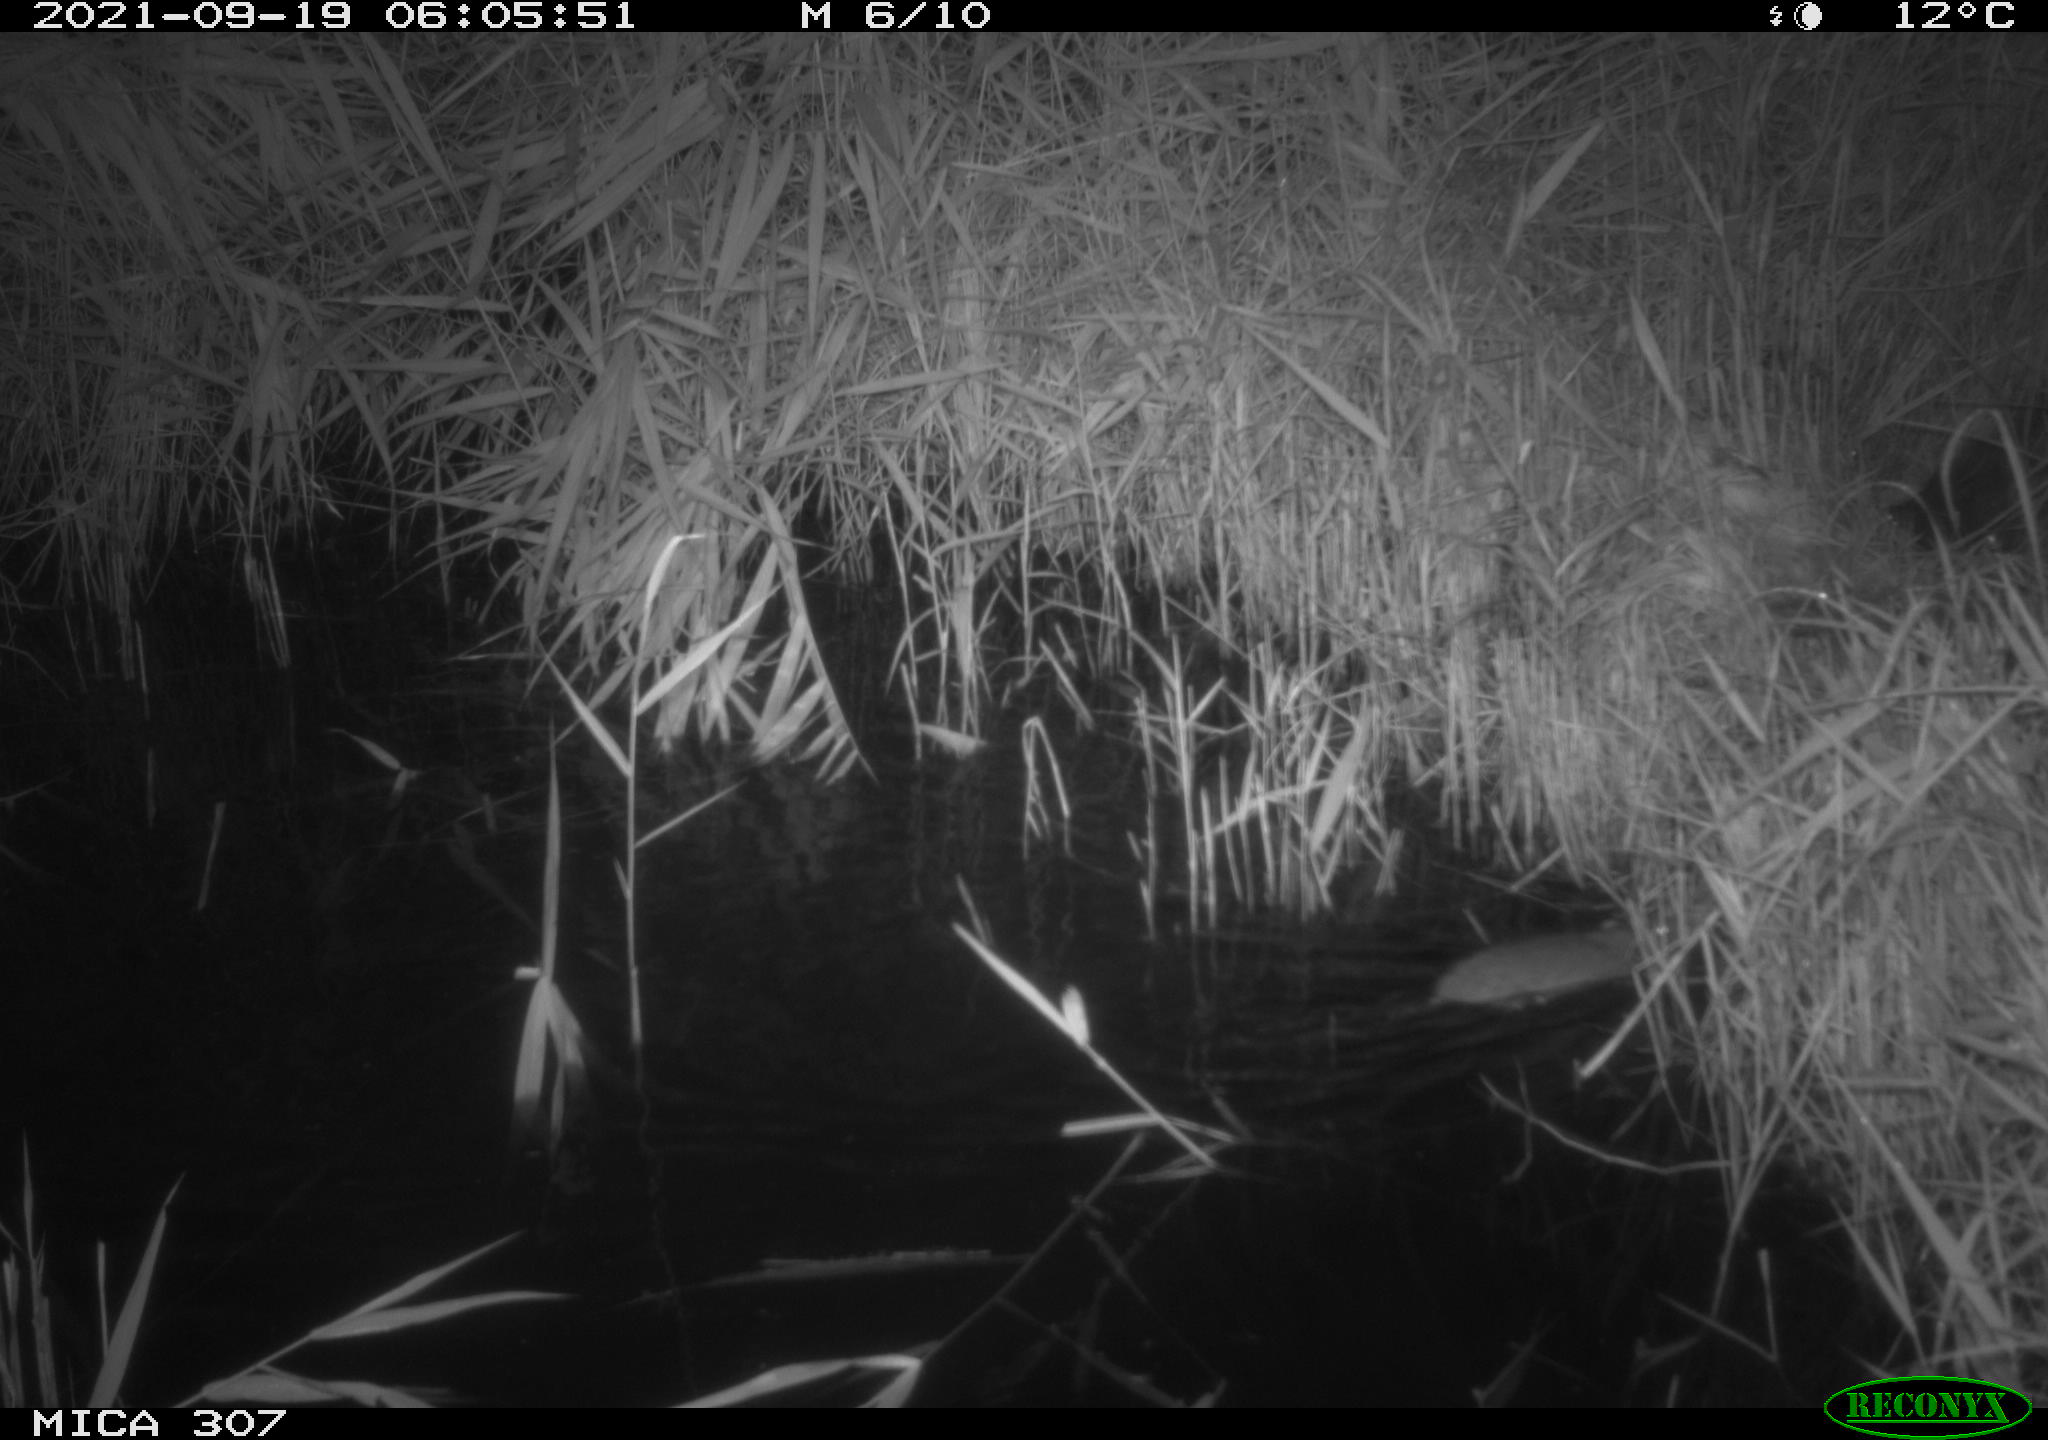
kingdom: Animalia
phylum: Chordata
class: Mammalia
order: Rodentia
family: Muridae
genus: Rattus
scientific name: Rattus norvegicus
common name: Brown rat
